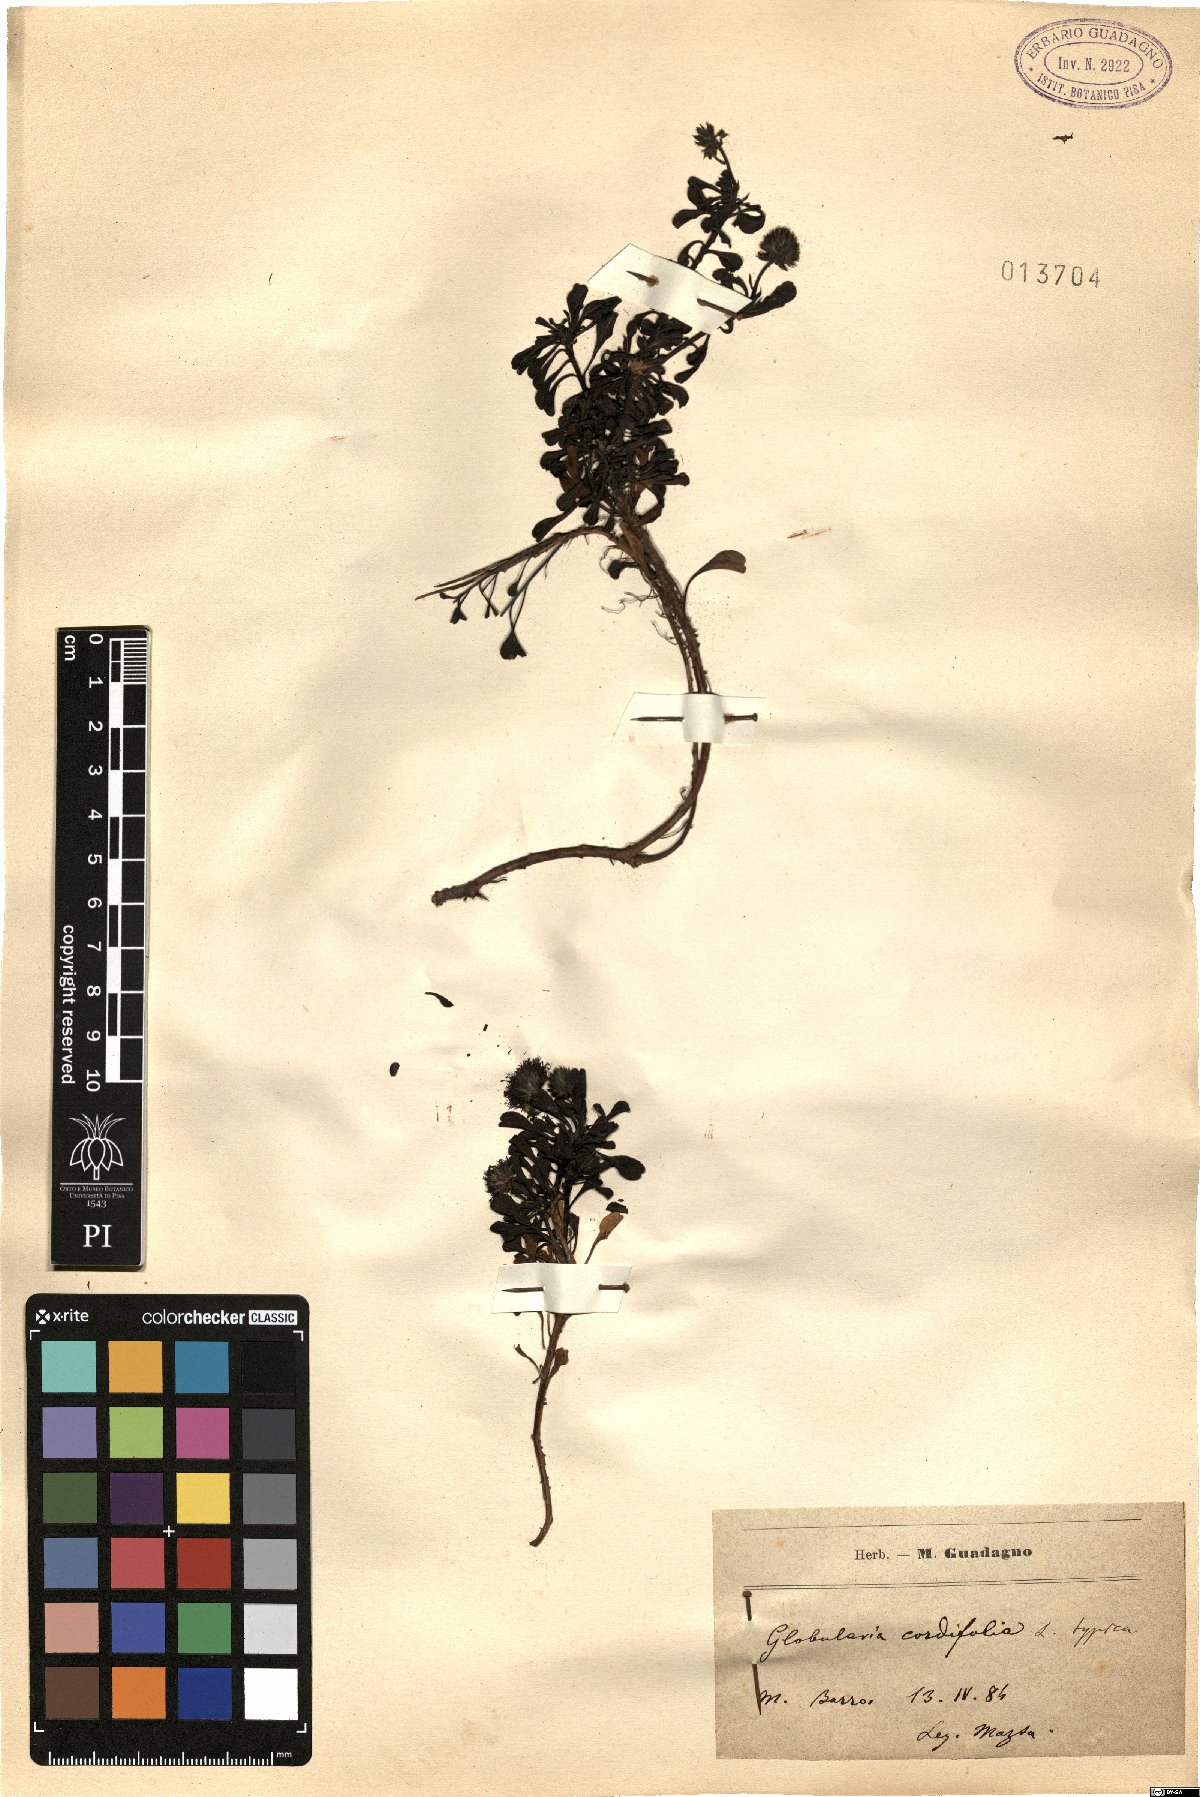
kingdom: Plantae
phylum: Tracheophyta
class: Magnoliopsida
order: Lamiales
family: Plantaginaceae
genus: Globularia
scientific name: Globularia cordifolia
